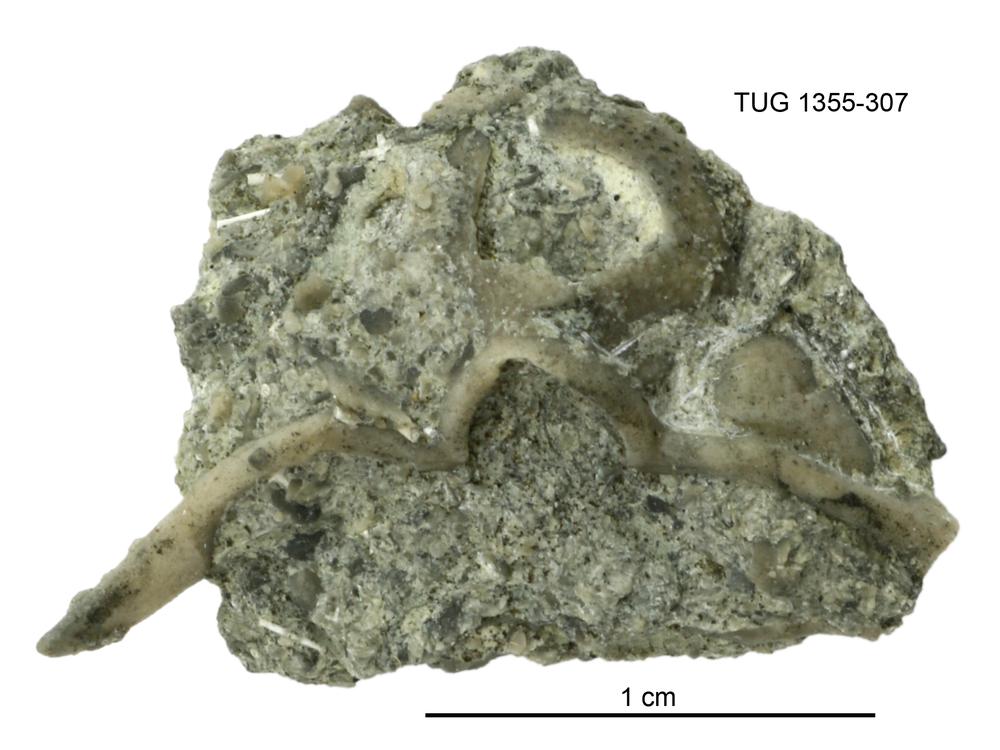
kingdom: Animalia
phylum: Arthropoda
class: Trilobita
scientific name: Trilobita
